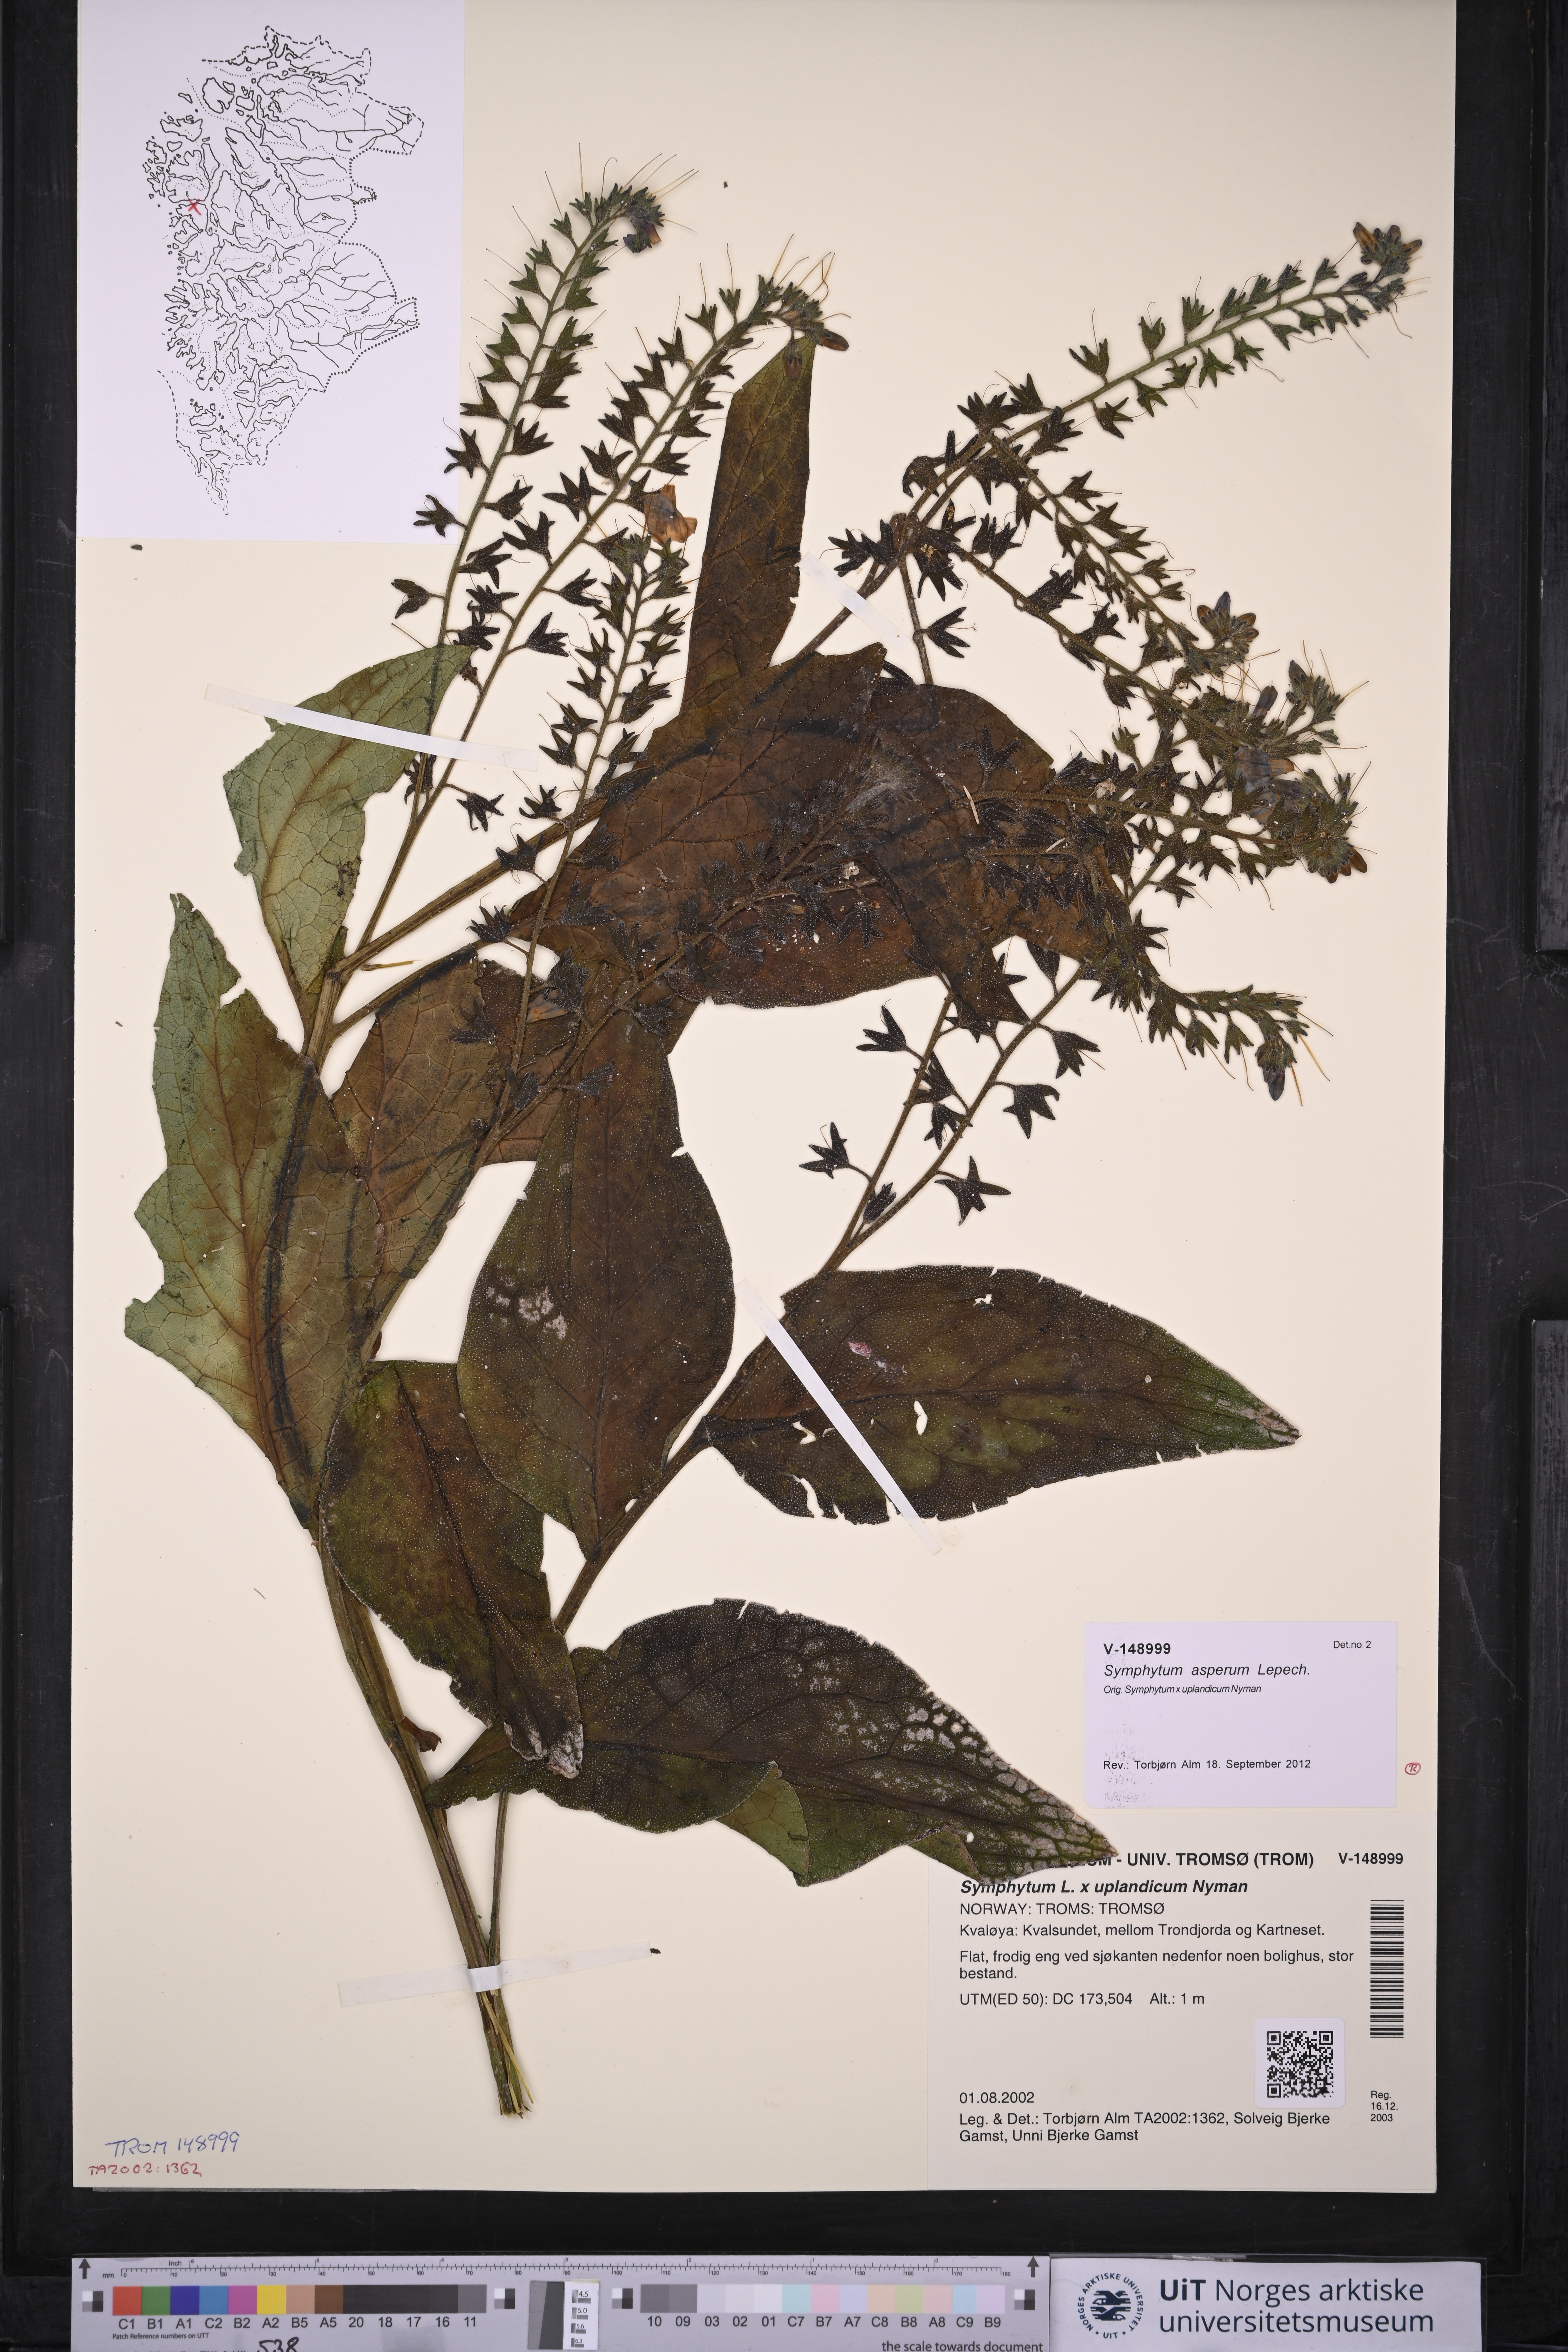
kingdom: Plantae
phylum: Tracheophyta
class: Magnoliopsida
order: Boraginales
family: Boraginaceae
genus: Symphytum
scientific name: Symphytum asperum
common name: Prickly comfrey
